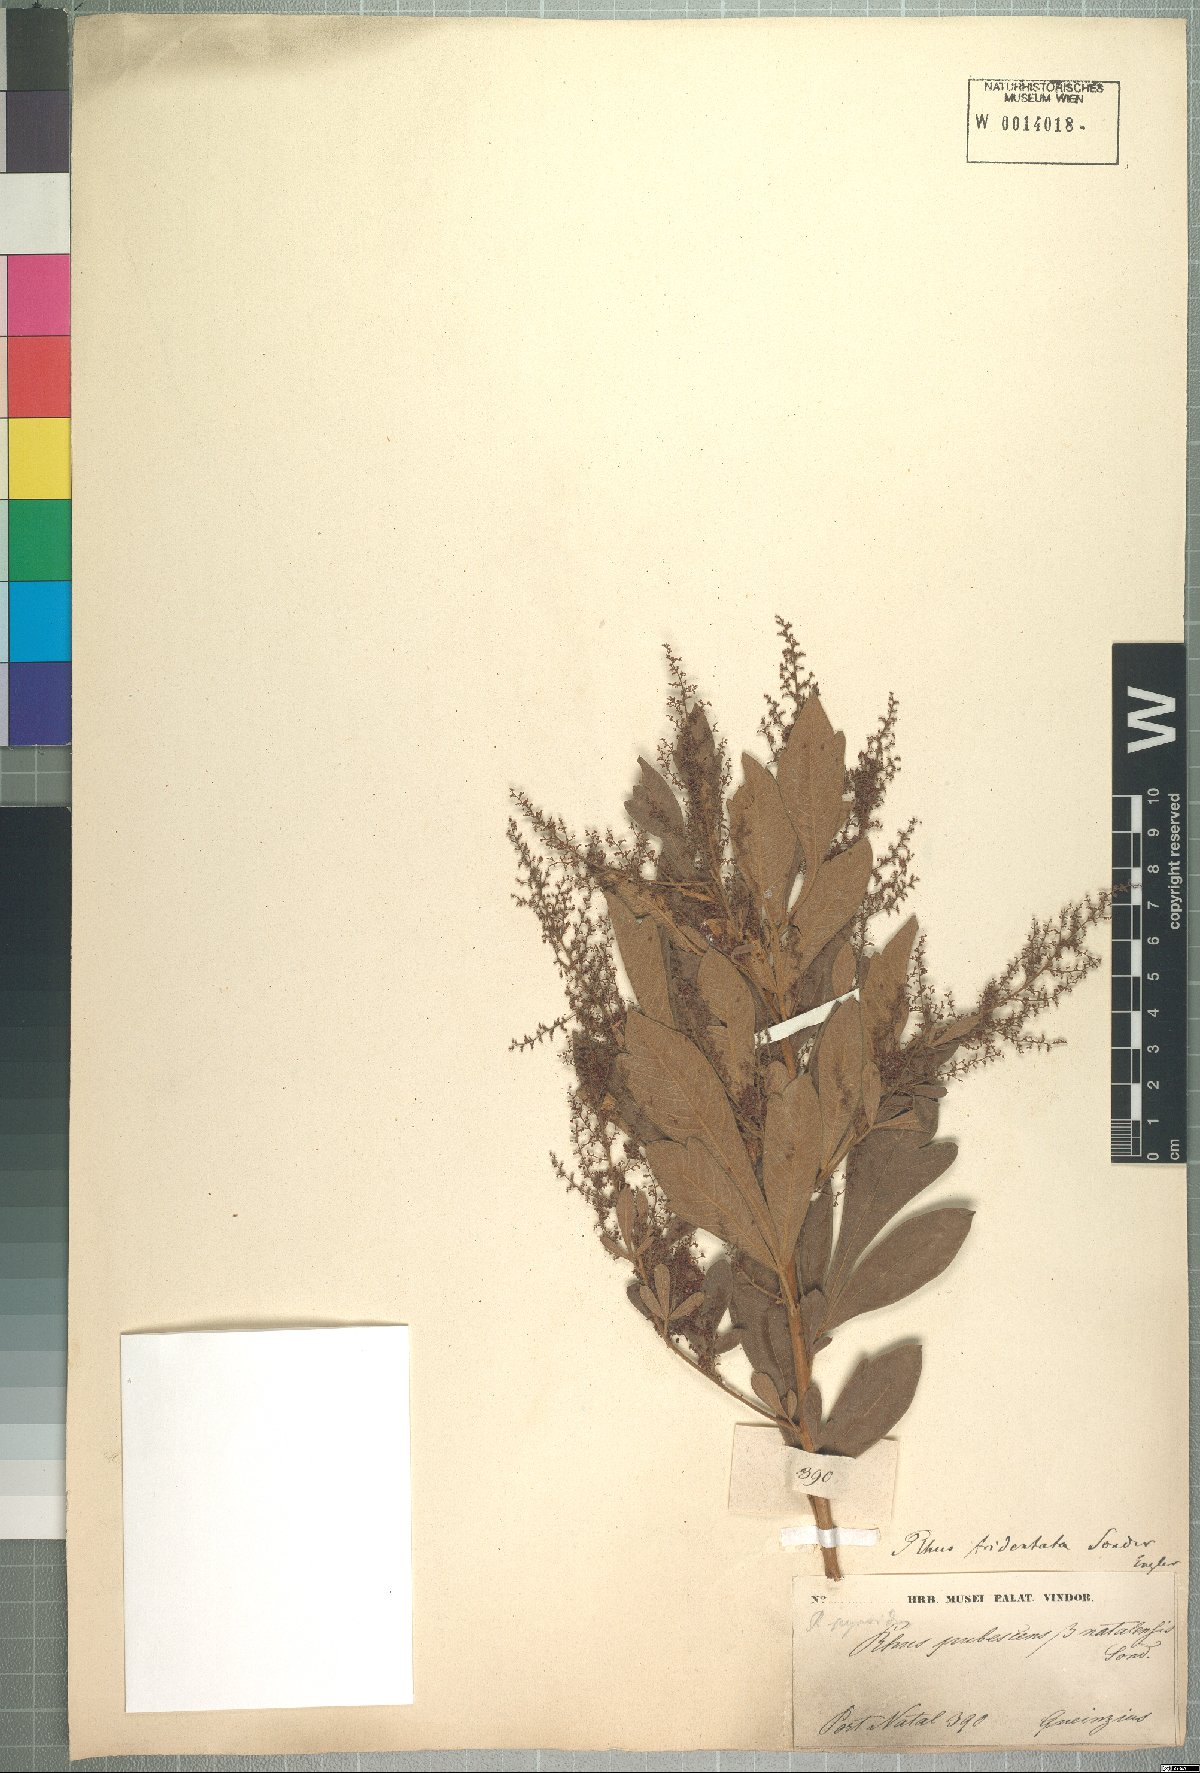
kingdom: Plantae
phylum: Tracheophyta
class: Magnoliopsida
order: Sapindales
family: Anacardiaceae
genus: Searsia
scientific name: Searsia pyroides
